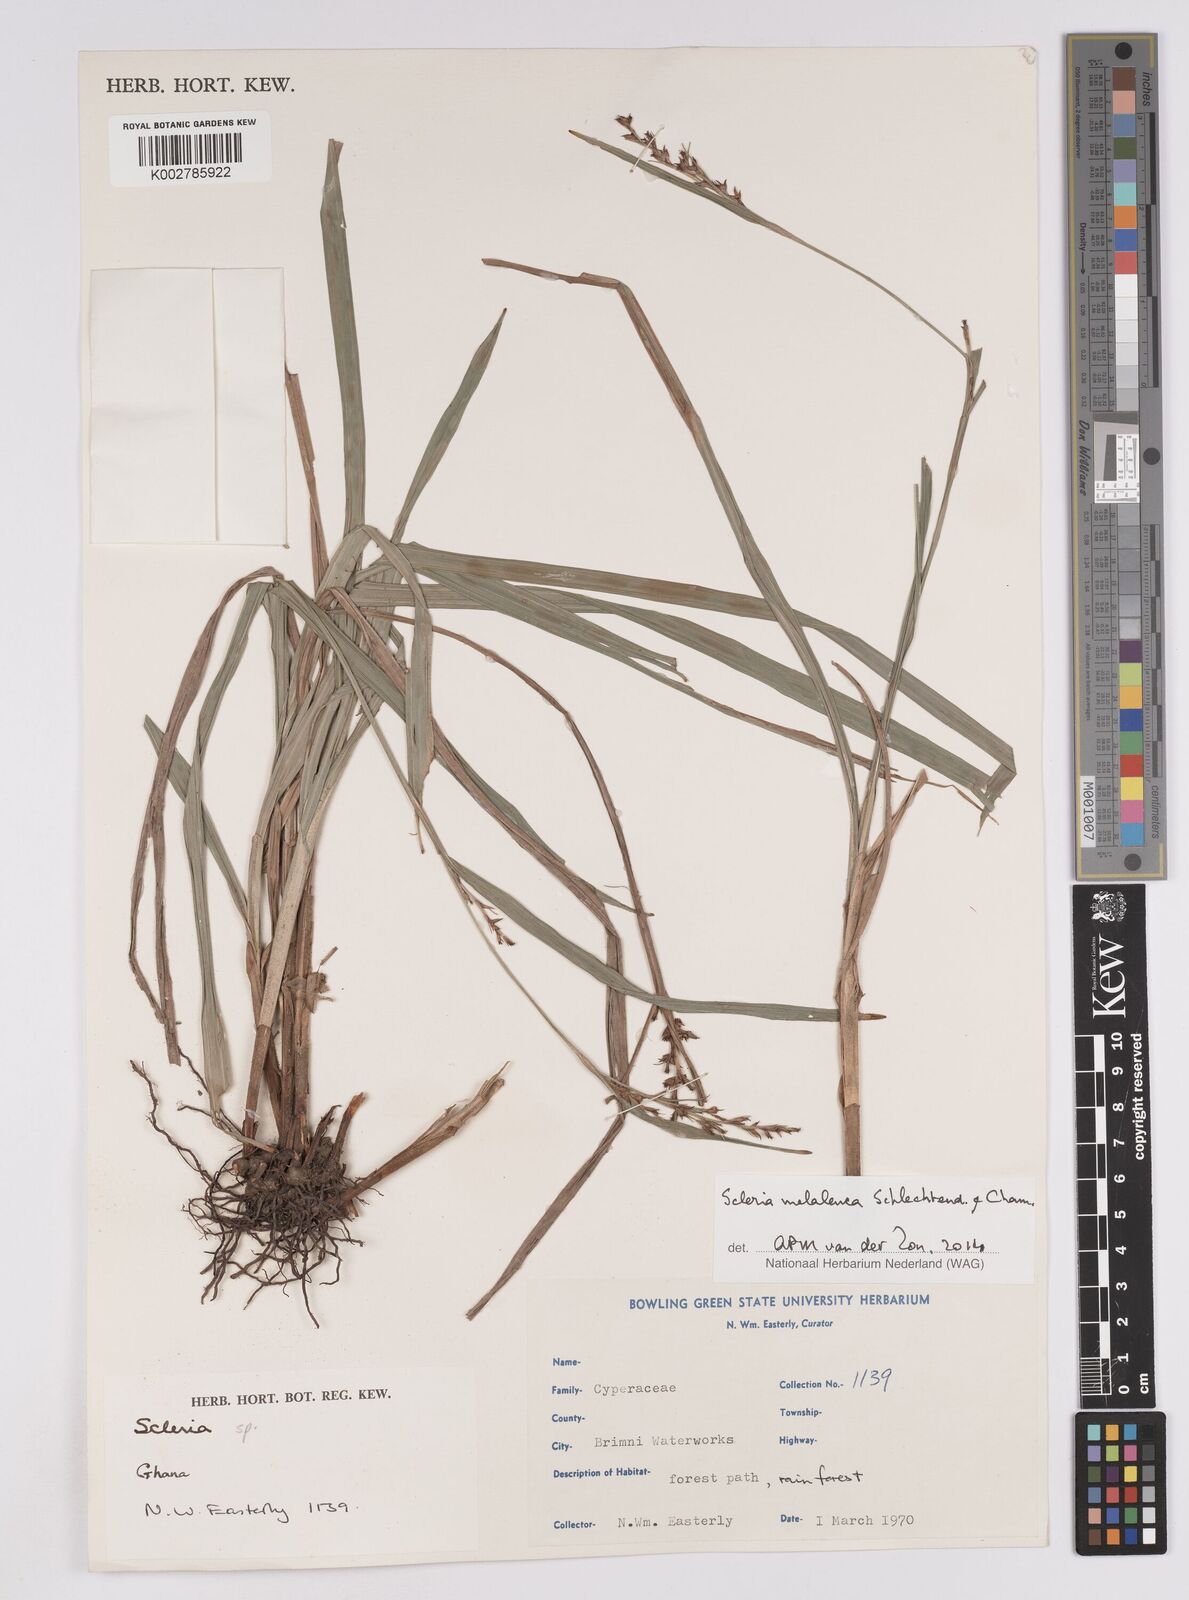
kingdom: Plantae
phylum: Tracheophyta
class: Liliopsida
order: Poales
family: Cyperaceae
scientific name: Cyperaceae
